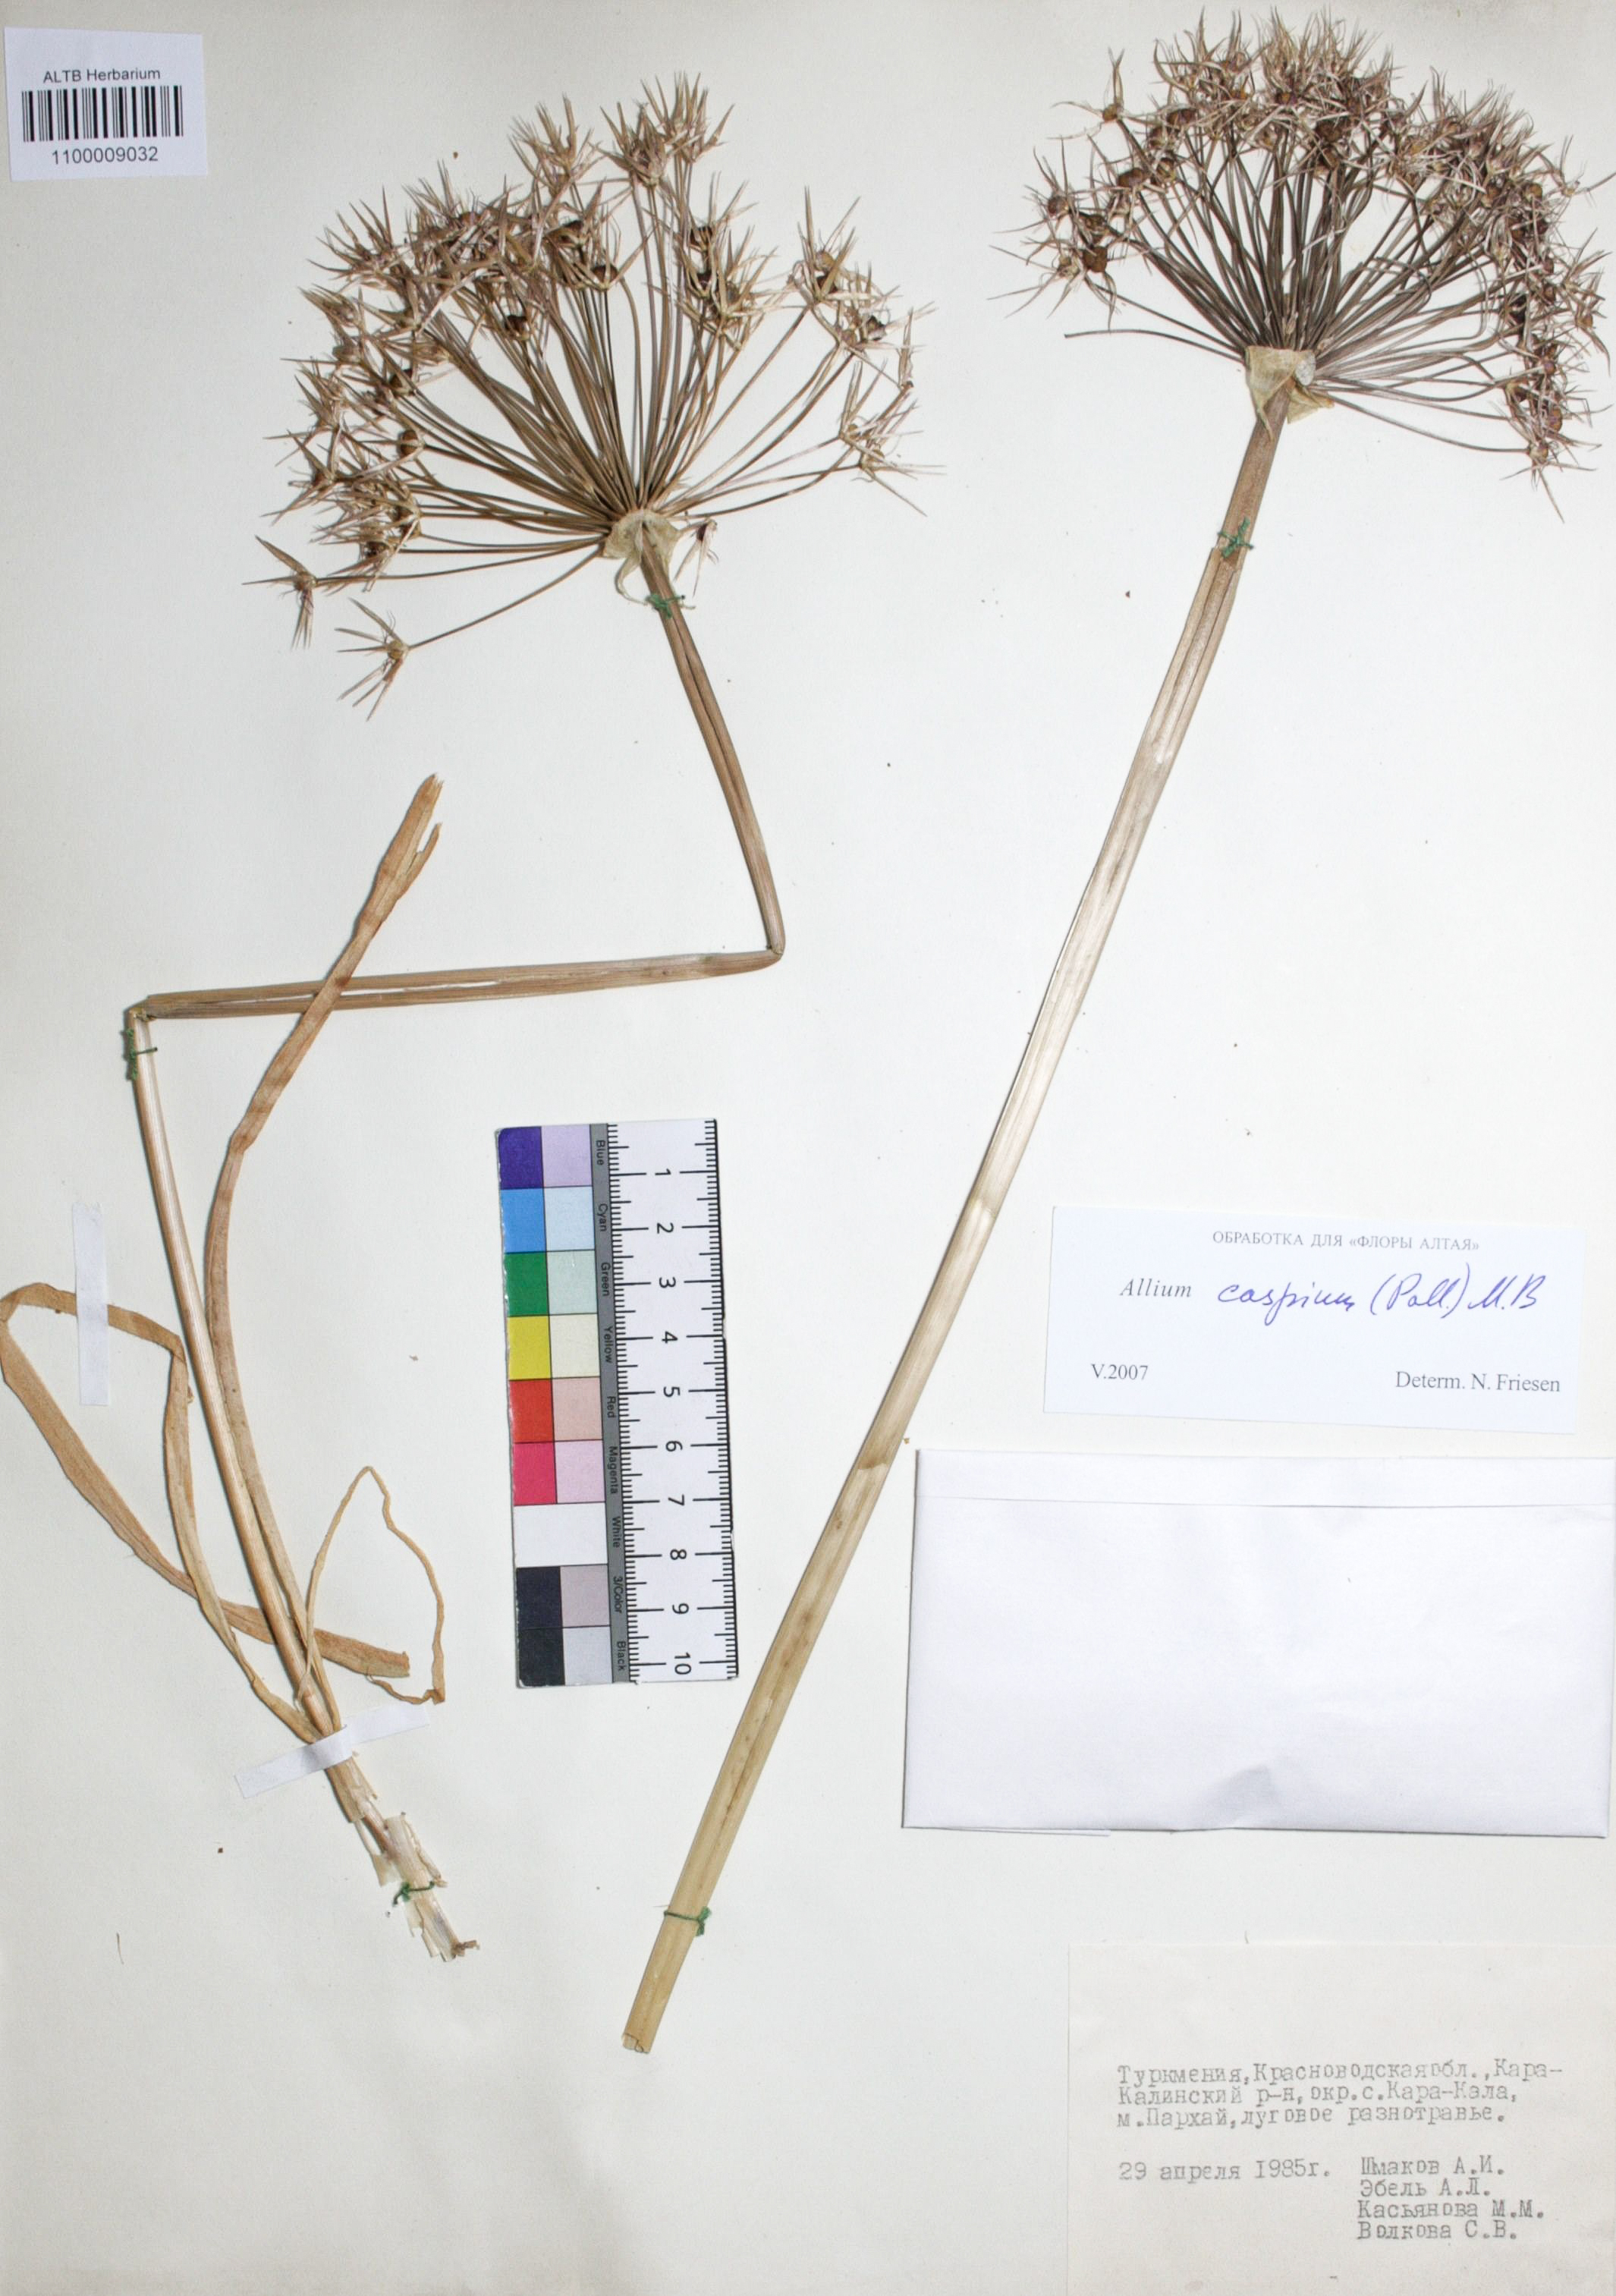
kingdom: Plantae
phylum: Tracheophyta
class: Liliopsida
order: Asparagales
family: Amaryllidaceae
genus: Allium
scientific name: Allium caspium
